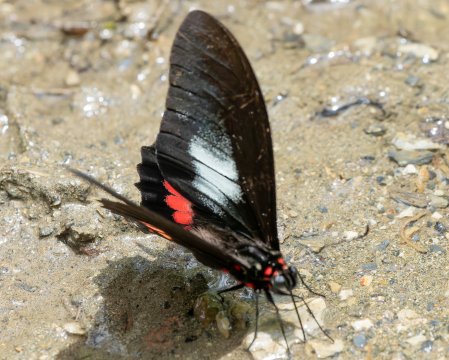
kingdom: Animalia
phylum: Arthropoda
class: Insecta
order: Lepidoptera
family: Papilionidae
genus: Papilio
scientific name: Papilio anchisiades
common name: Ruby-spotted Swallowtail
